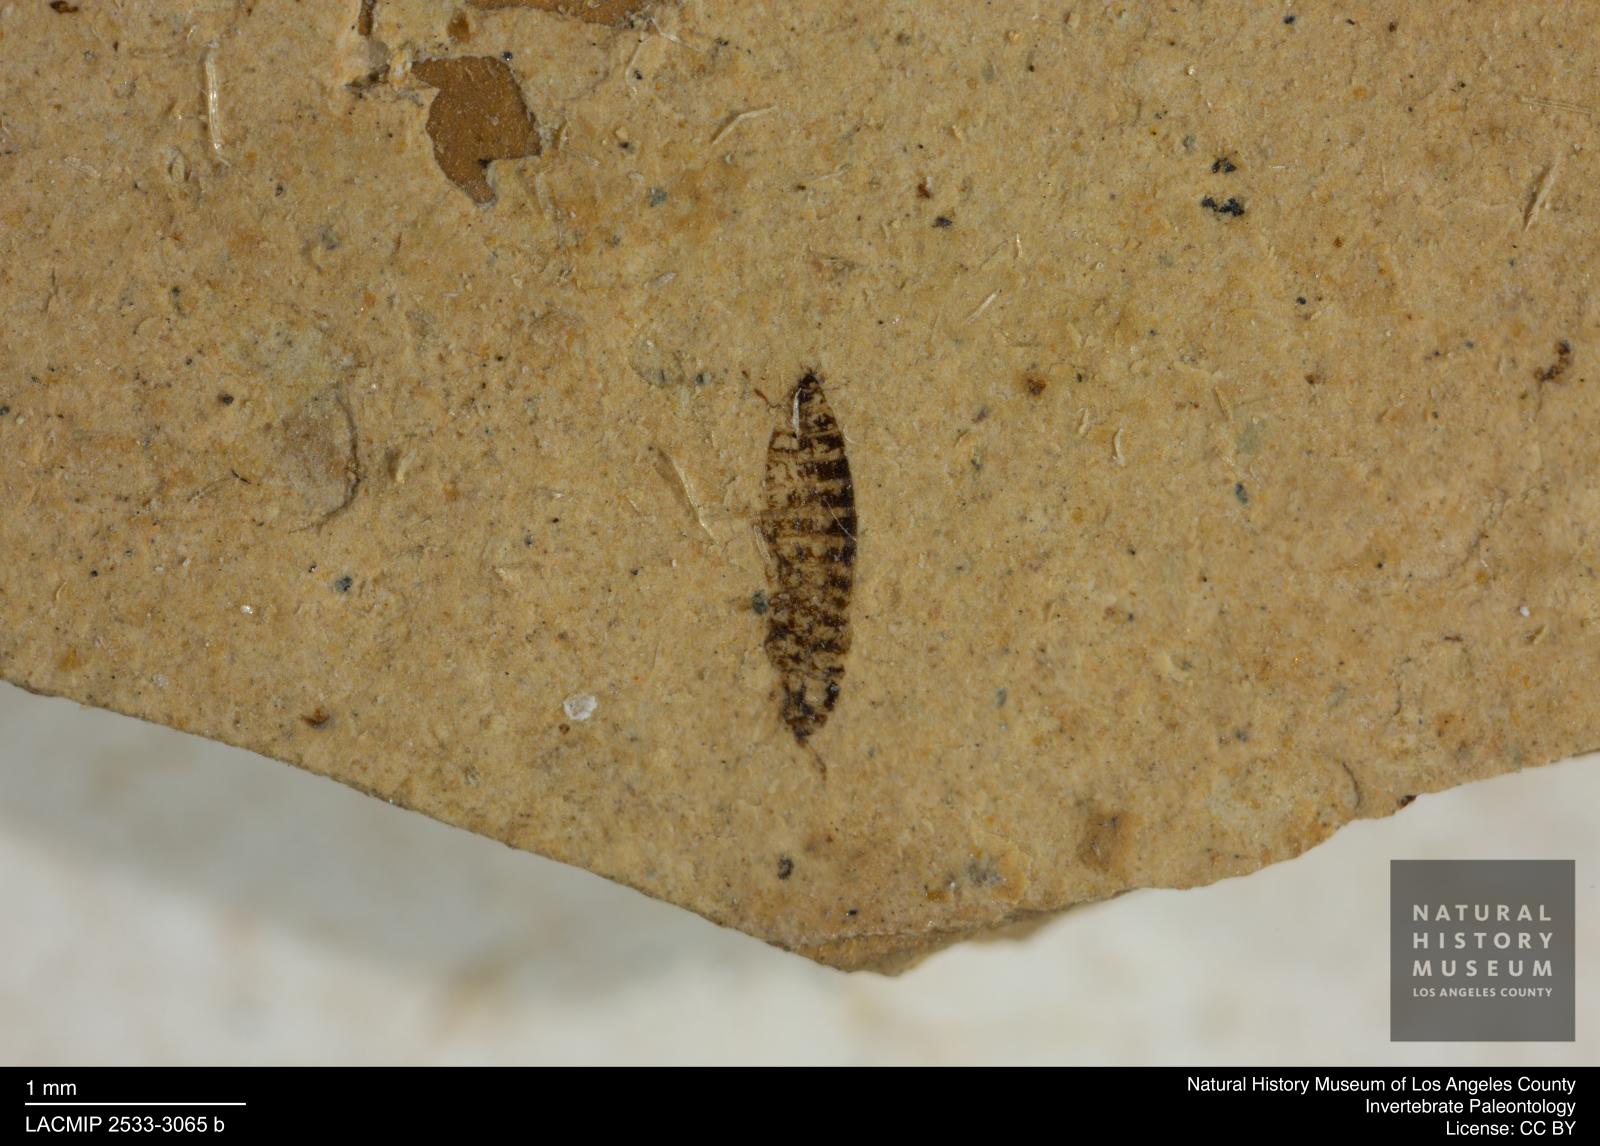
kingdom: Animalia
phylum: Arthropoda
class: Insecta
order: Thysanoptera
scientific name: Thysanoptera
